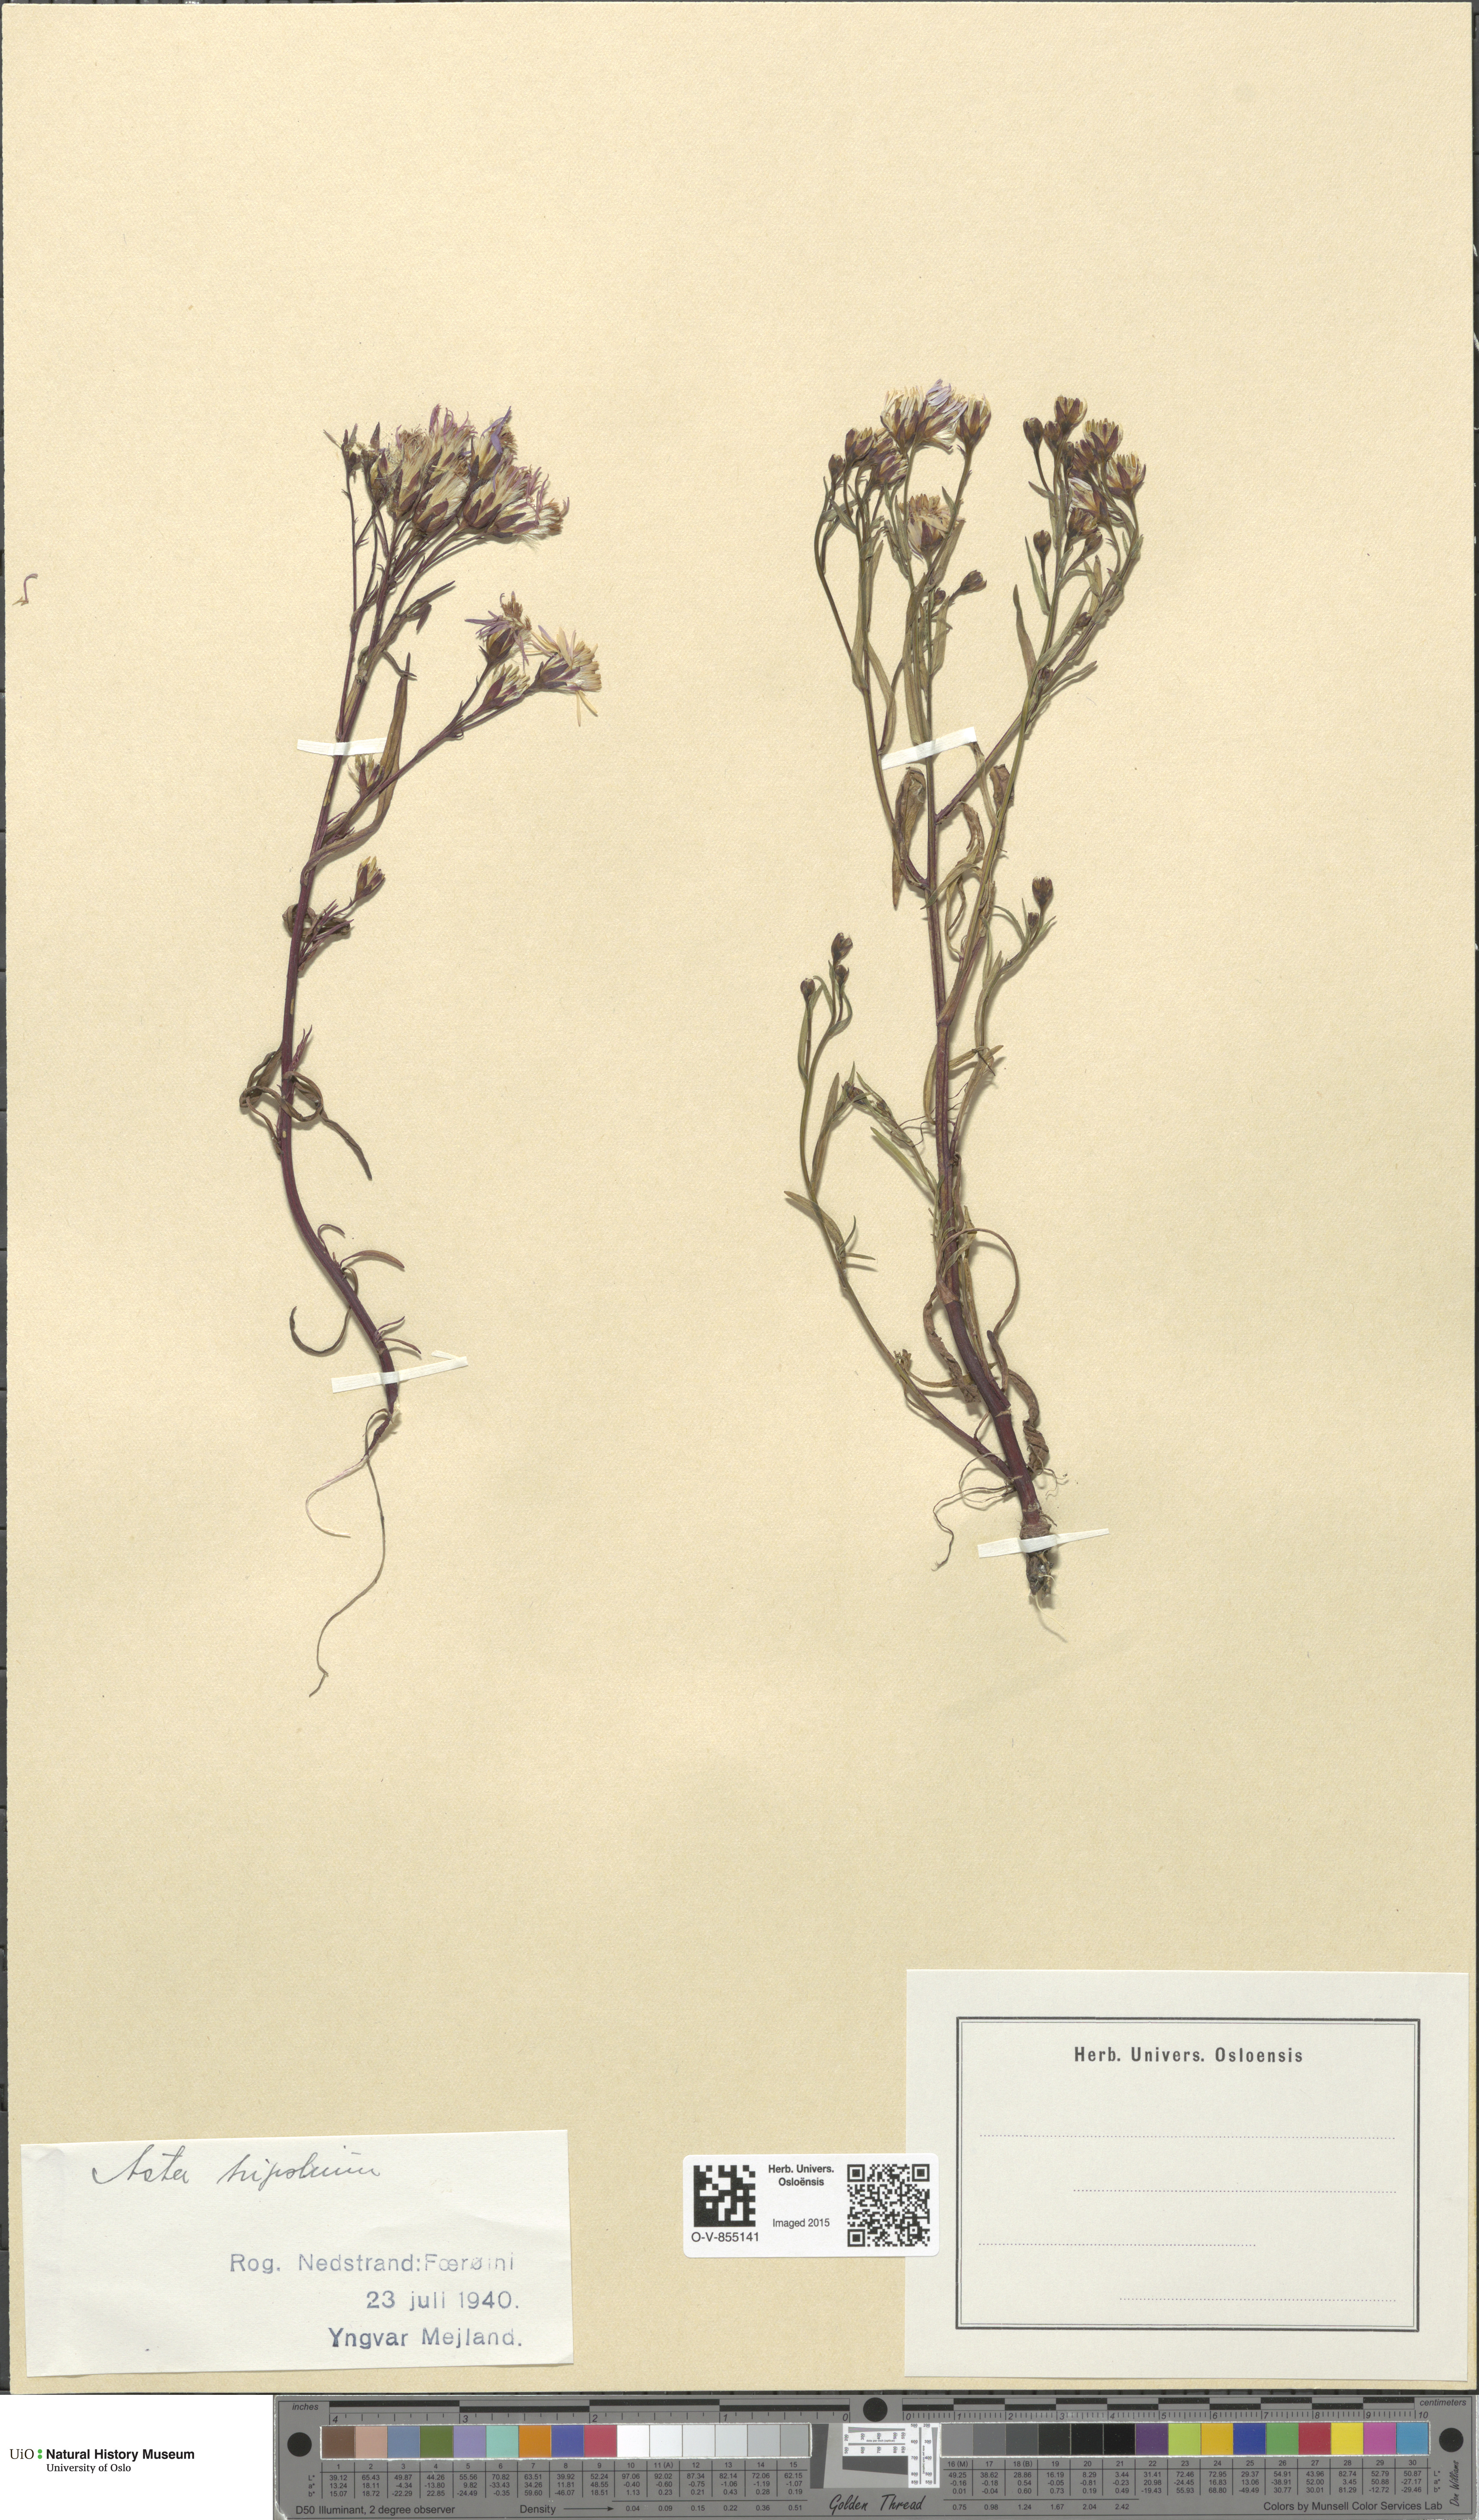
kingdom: Plantae
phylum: Tracheophyta
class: Magnoliopsida
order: Asterales
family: Asteraceae
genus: Tripolium
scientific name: Tripolium pannonicum
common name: Sea aster
